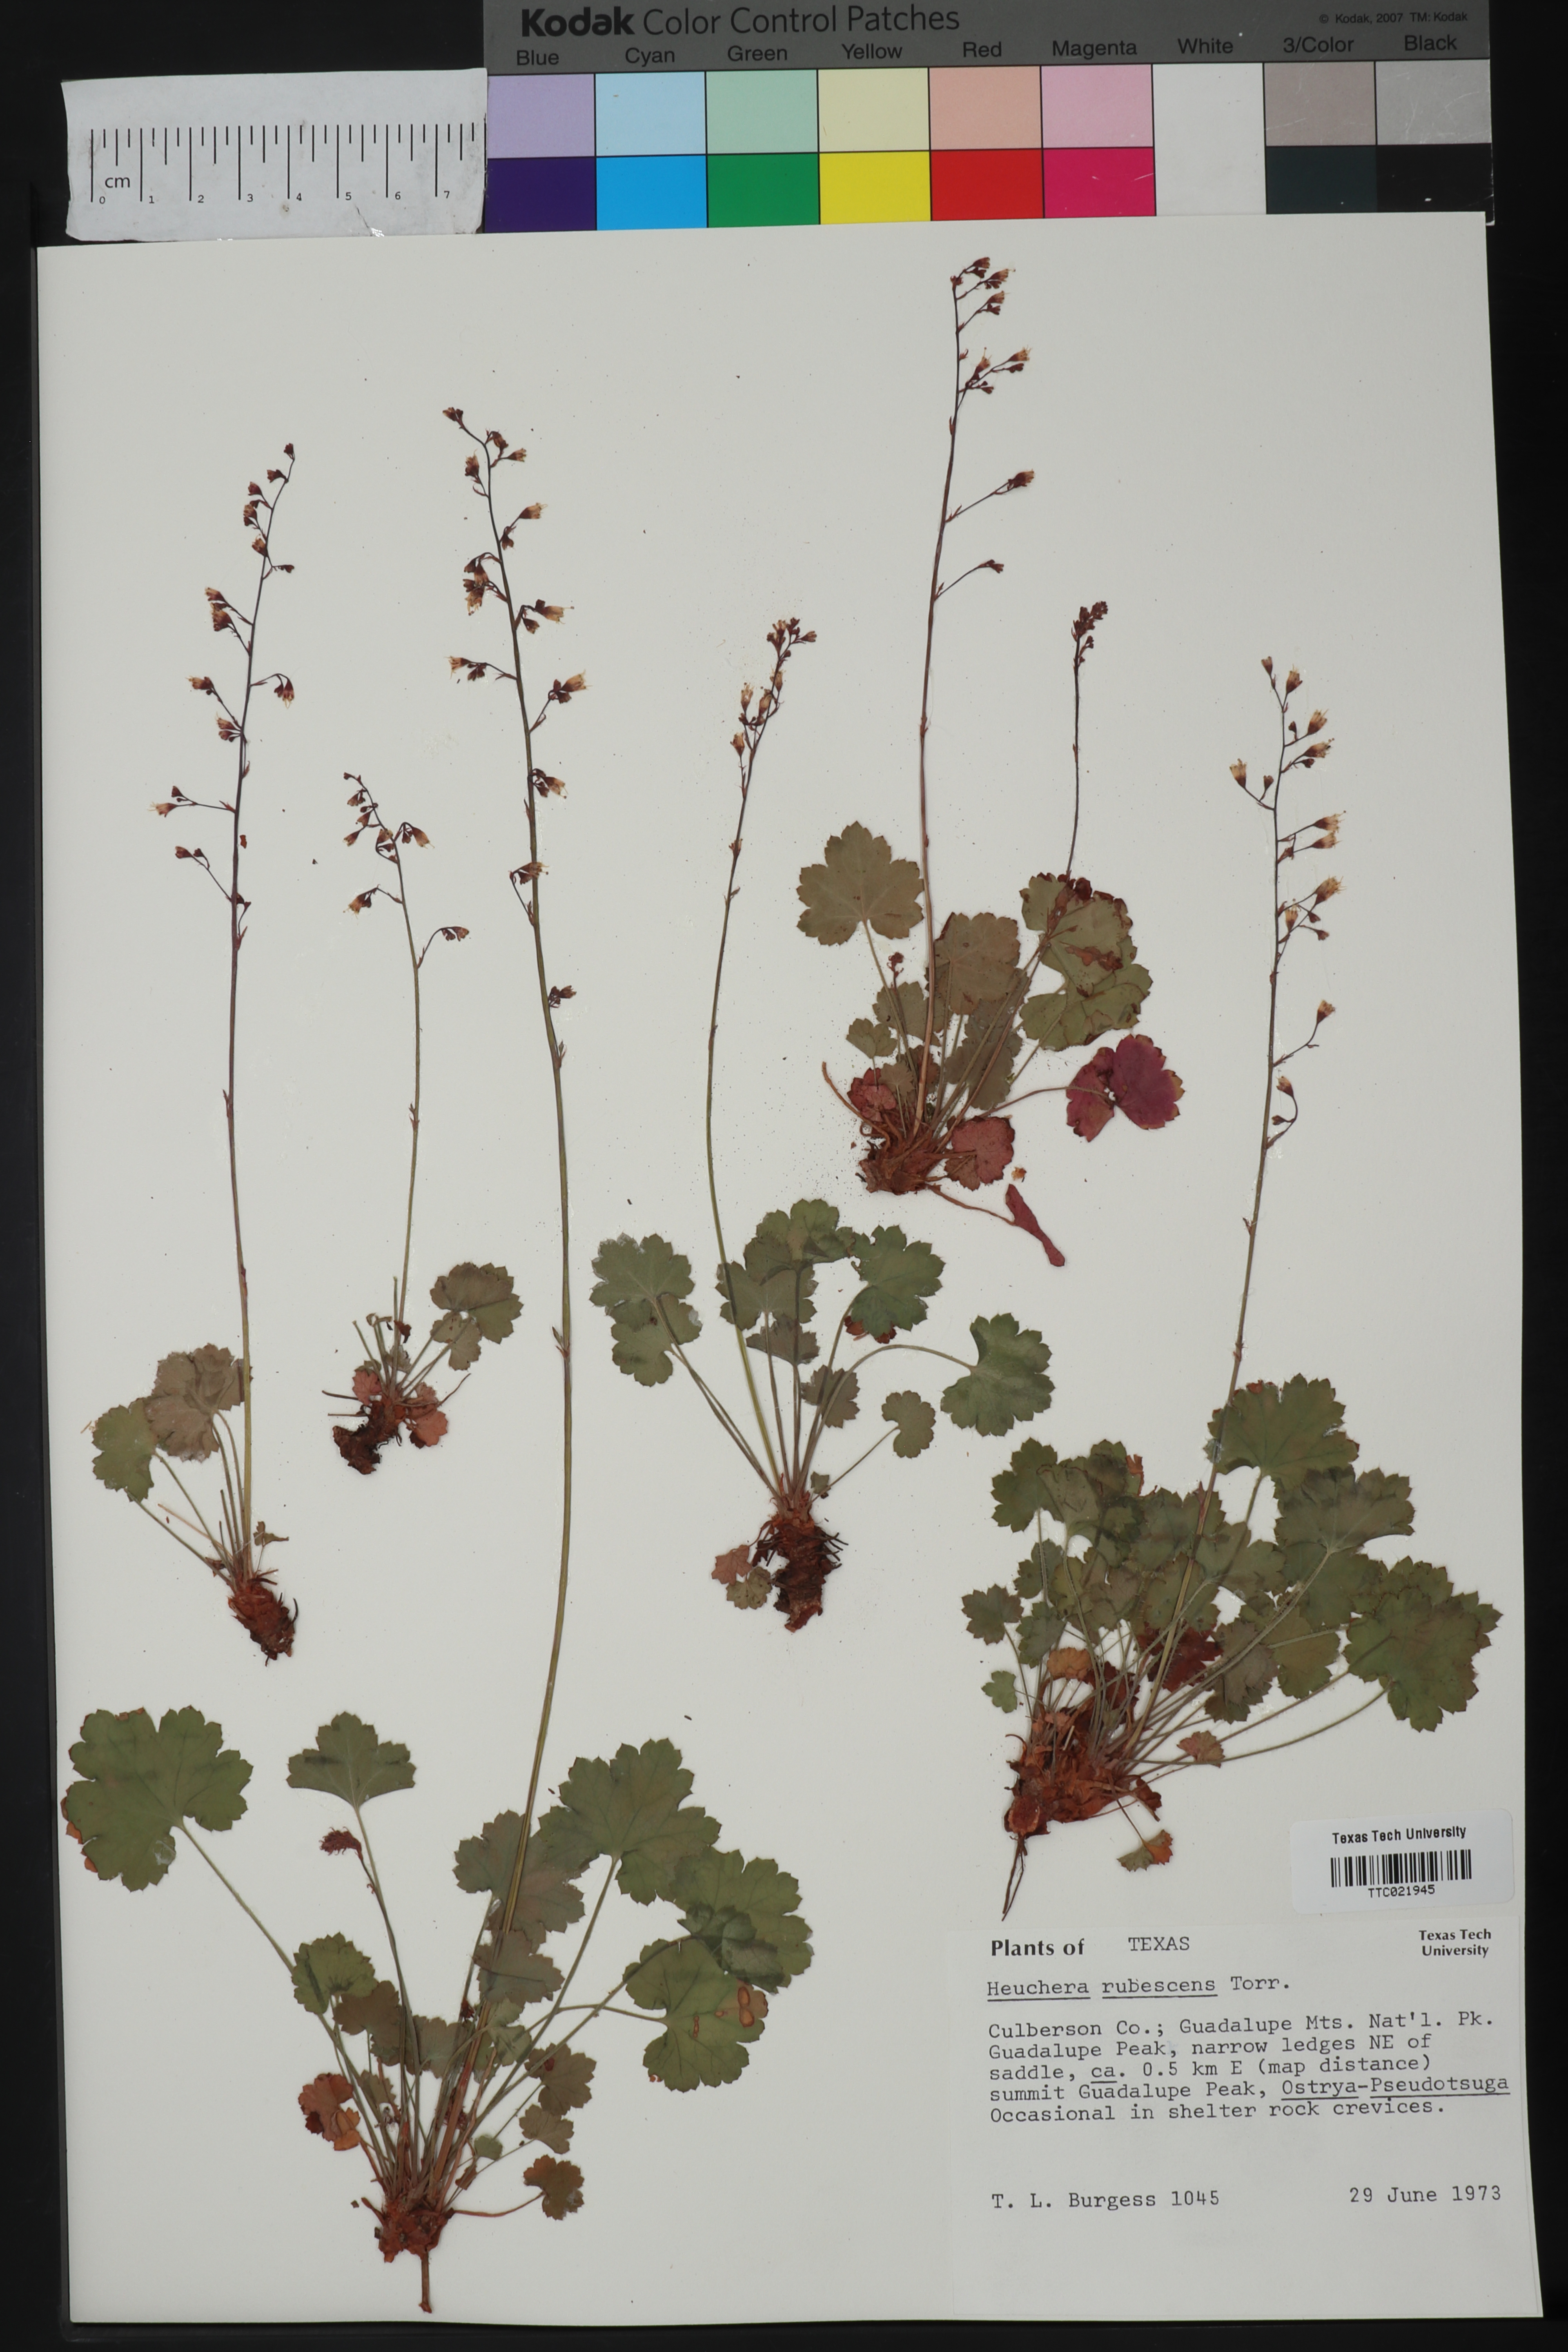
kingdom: Plantae
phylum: Tracheophyta
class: Magnoliopsida
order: Saxifragales
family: Saxifragaceae
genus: Heuchera
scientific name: Heuchera rubescens
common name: Jack-o'the-rocks
